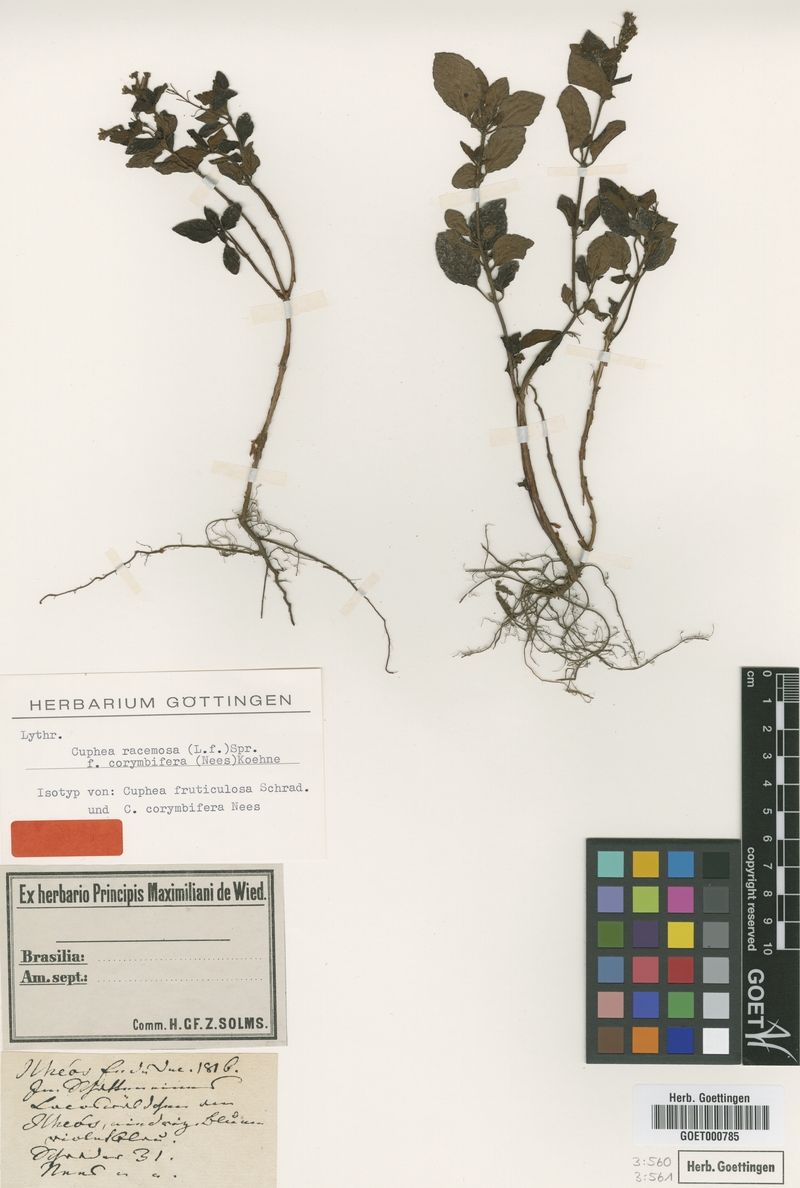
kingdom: Plantae
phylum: Tracheophyta
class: Magnoliopsida
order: Myrtales
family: Lythraceae
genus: Cuphea
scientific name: Cuphea racemosa
